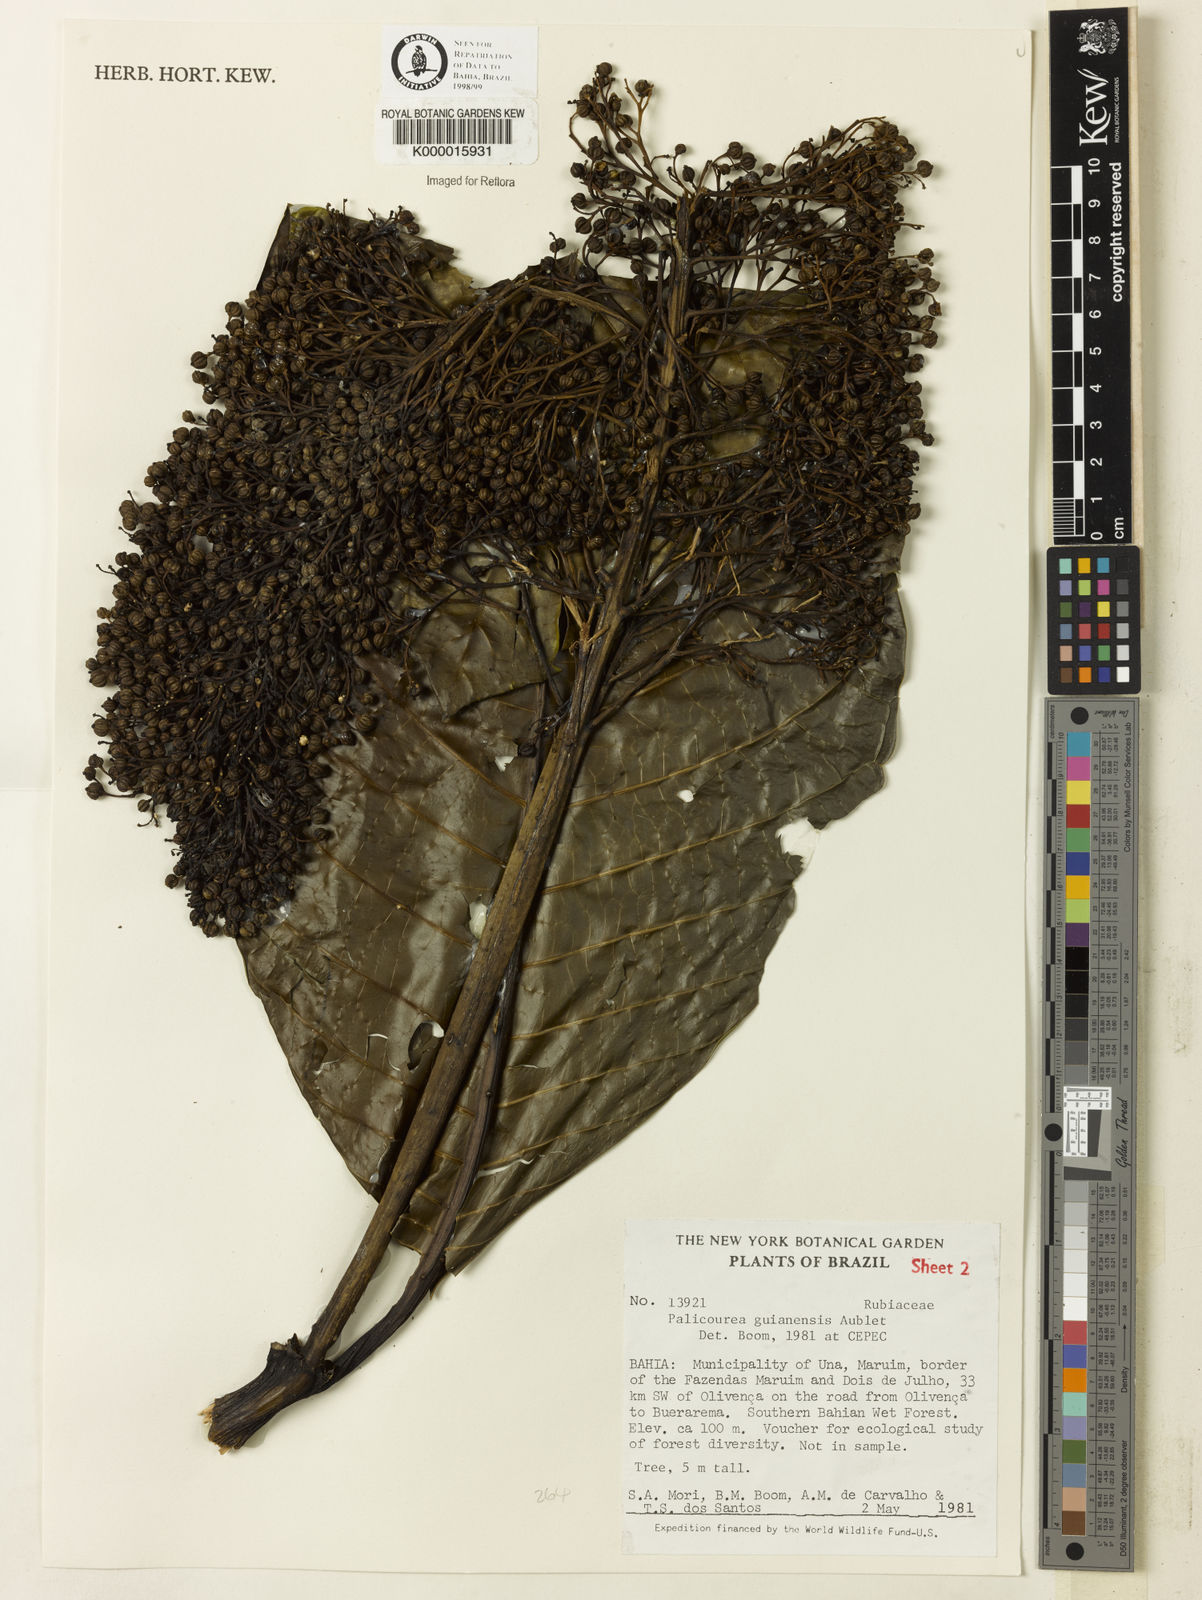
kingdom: Plantae
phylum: Tracheophyta
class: Magnoliopsida
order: Gentianales
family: Rubiaceae
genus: Palicourea
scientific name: Palicourea guianensis
